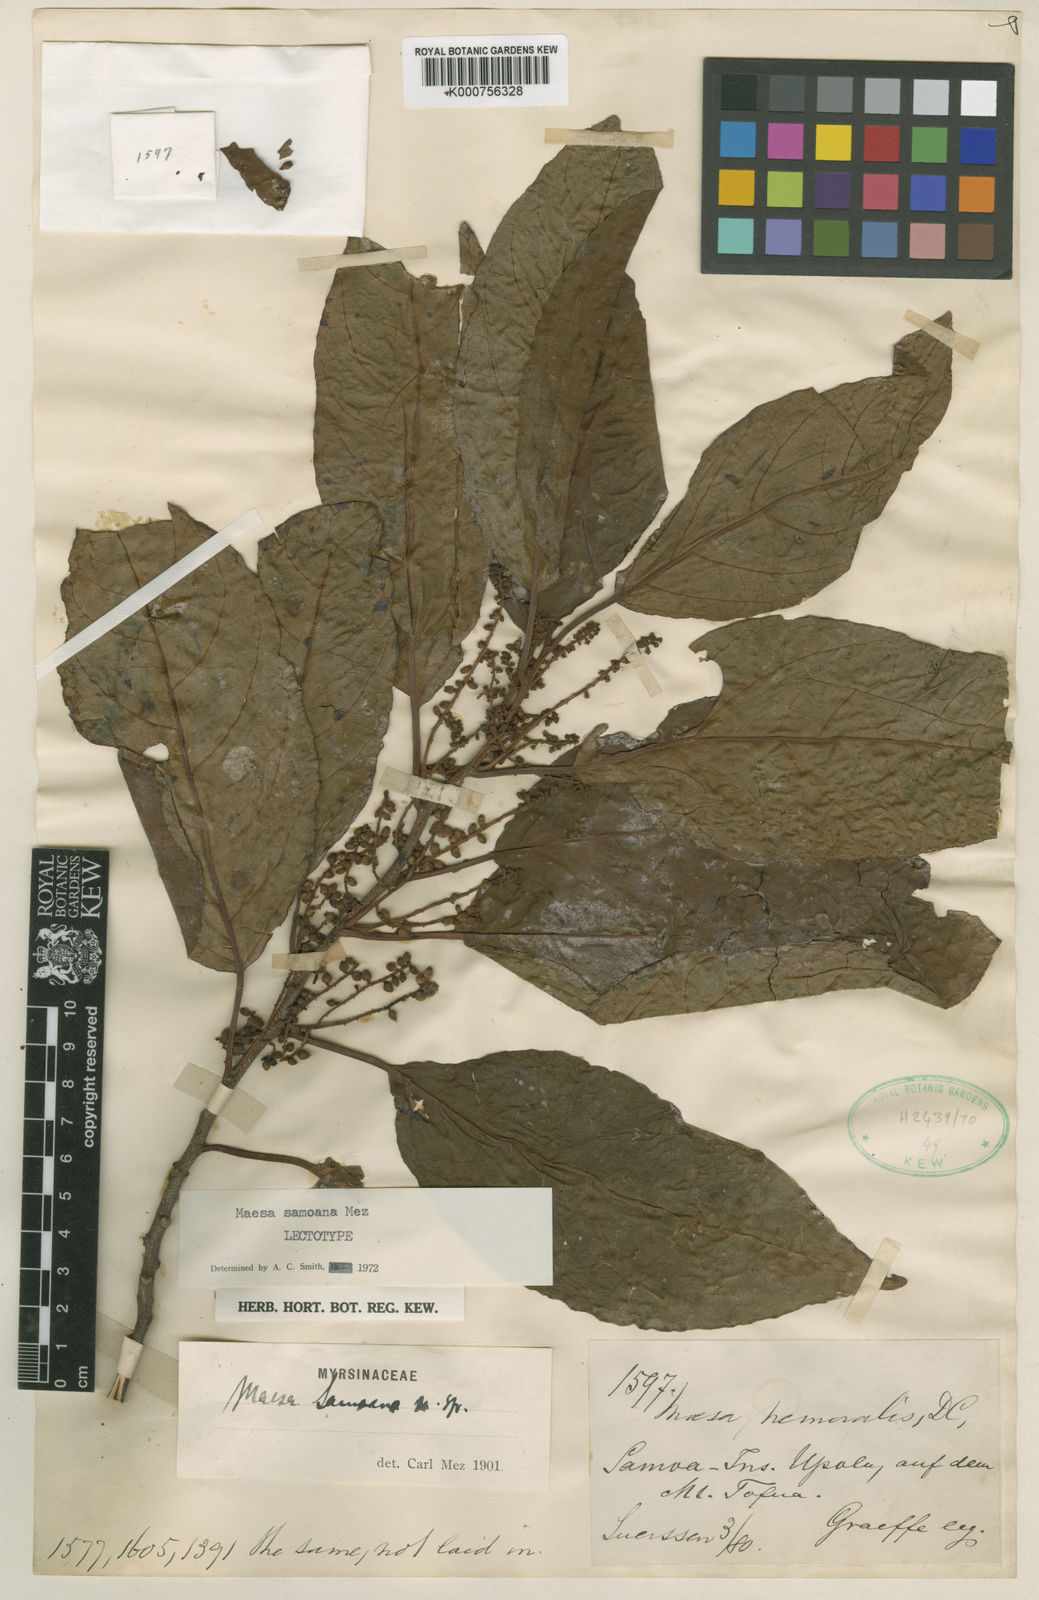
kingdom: Plantae
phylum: Tracheophyta
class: Magnoliopsida
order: Ericales
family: Primulaceae
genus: Maesa
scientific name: Maesa samoana
